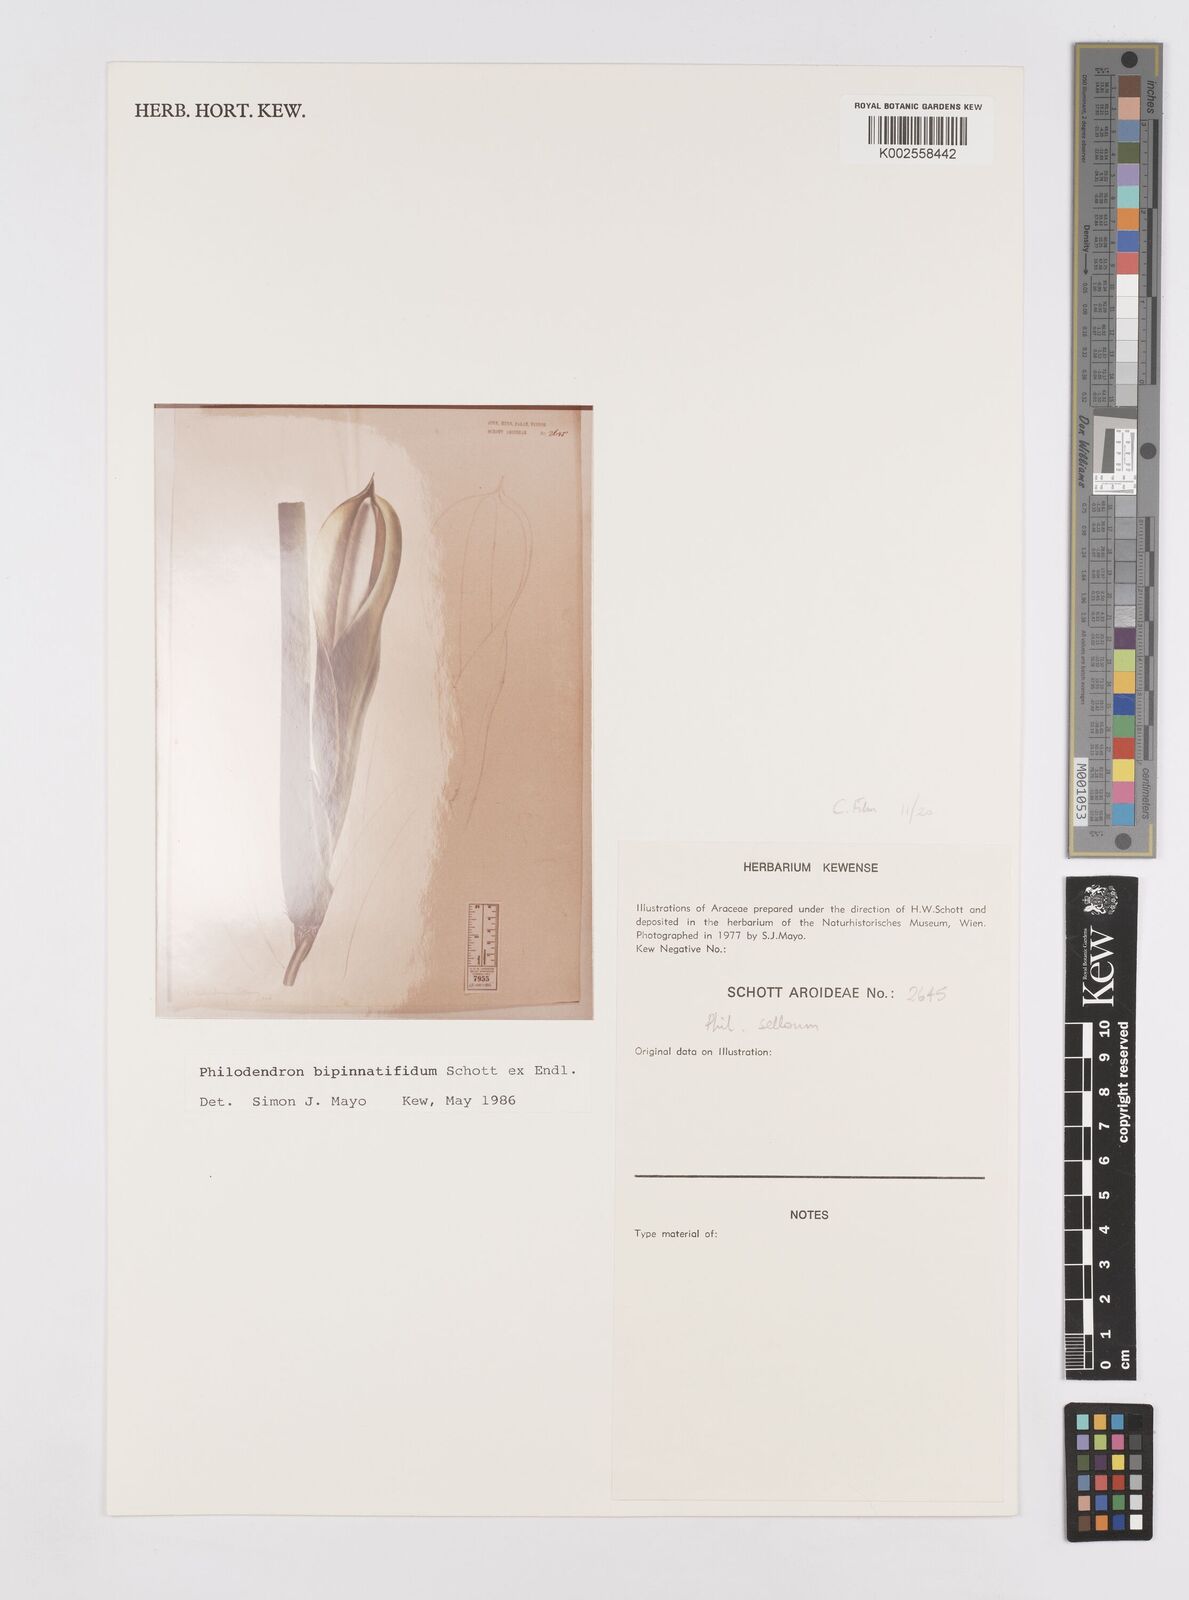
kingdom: Plantae
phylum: Tracheophyta
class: Liliopsida
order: Alismatales
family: Araceae
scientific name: Araceae
